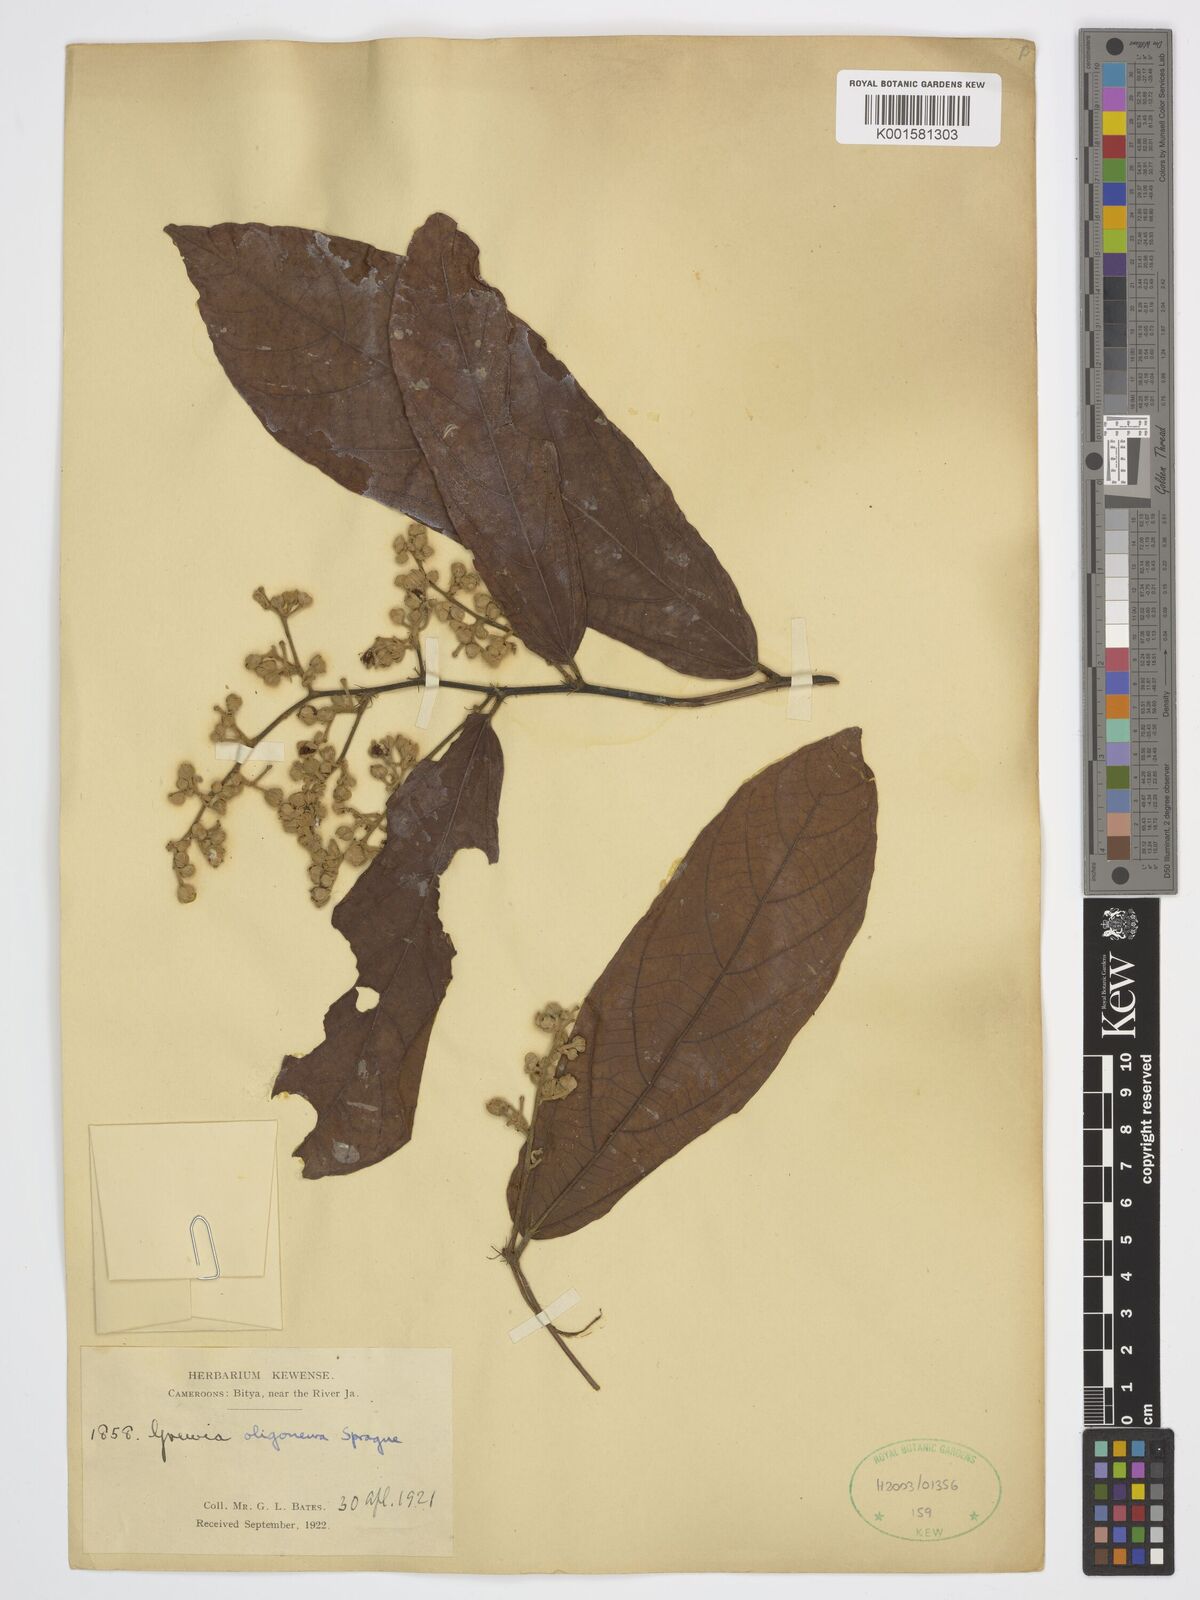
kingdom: Plantae
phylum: Tracheophyta
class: Magnoliopsida
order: Malvales
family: Malvaceae
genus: Microcos
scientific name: Microcos oligoneura
